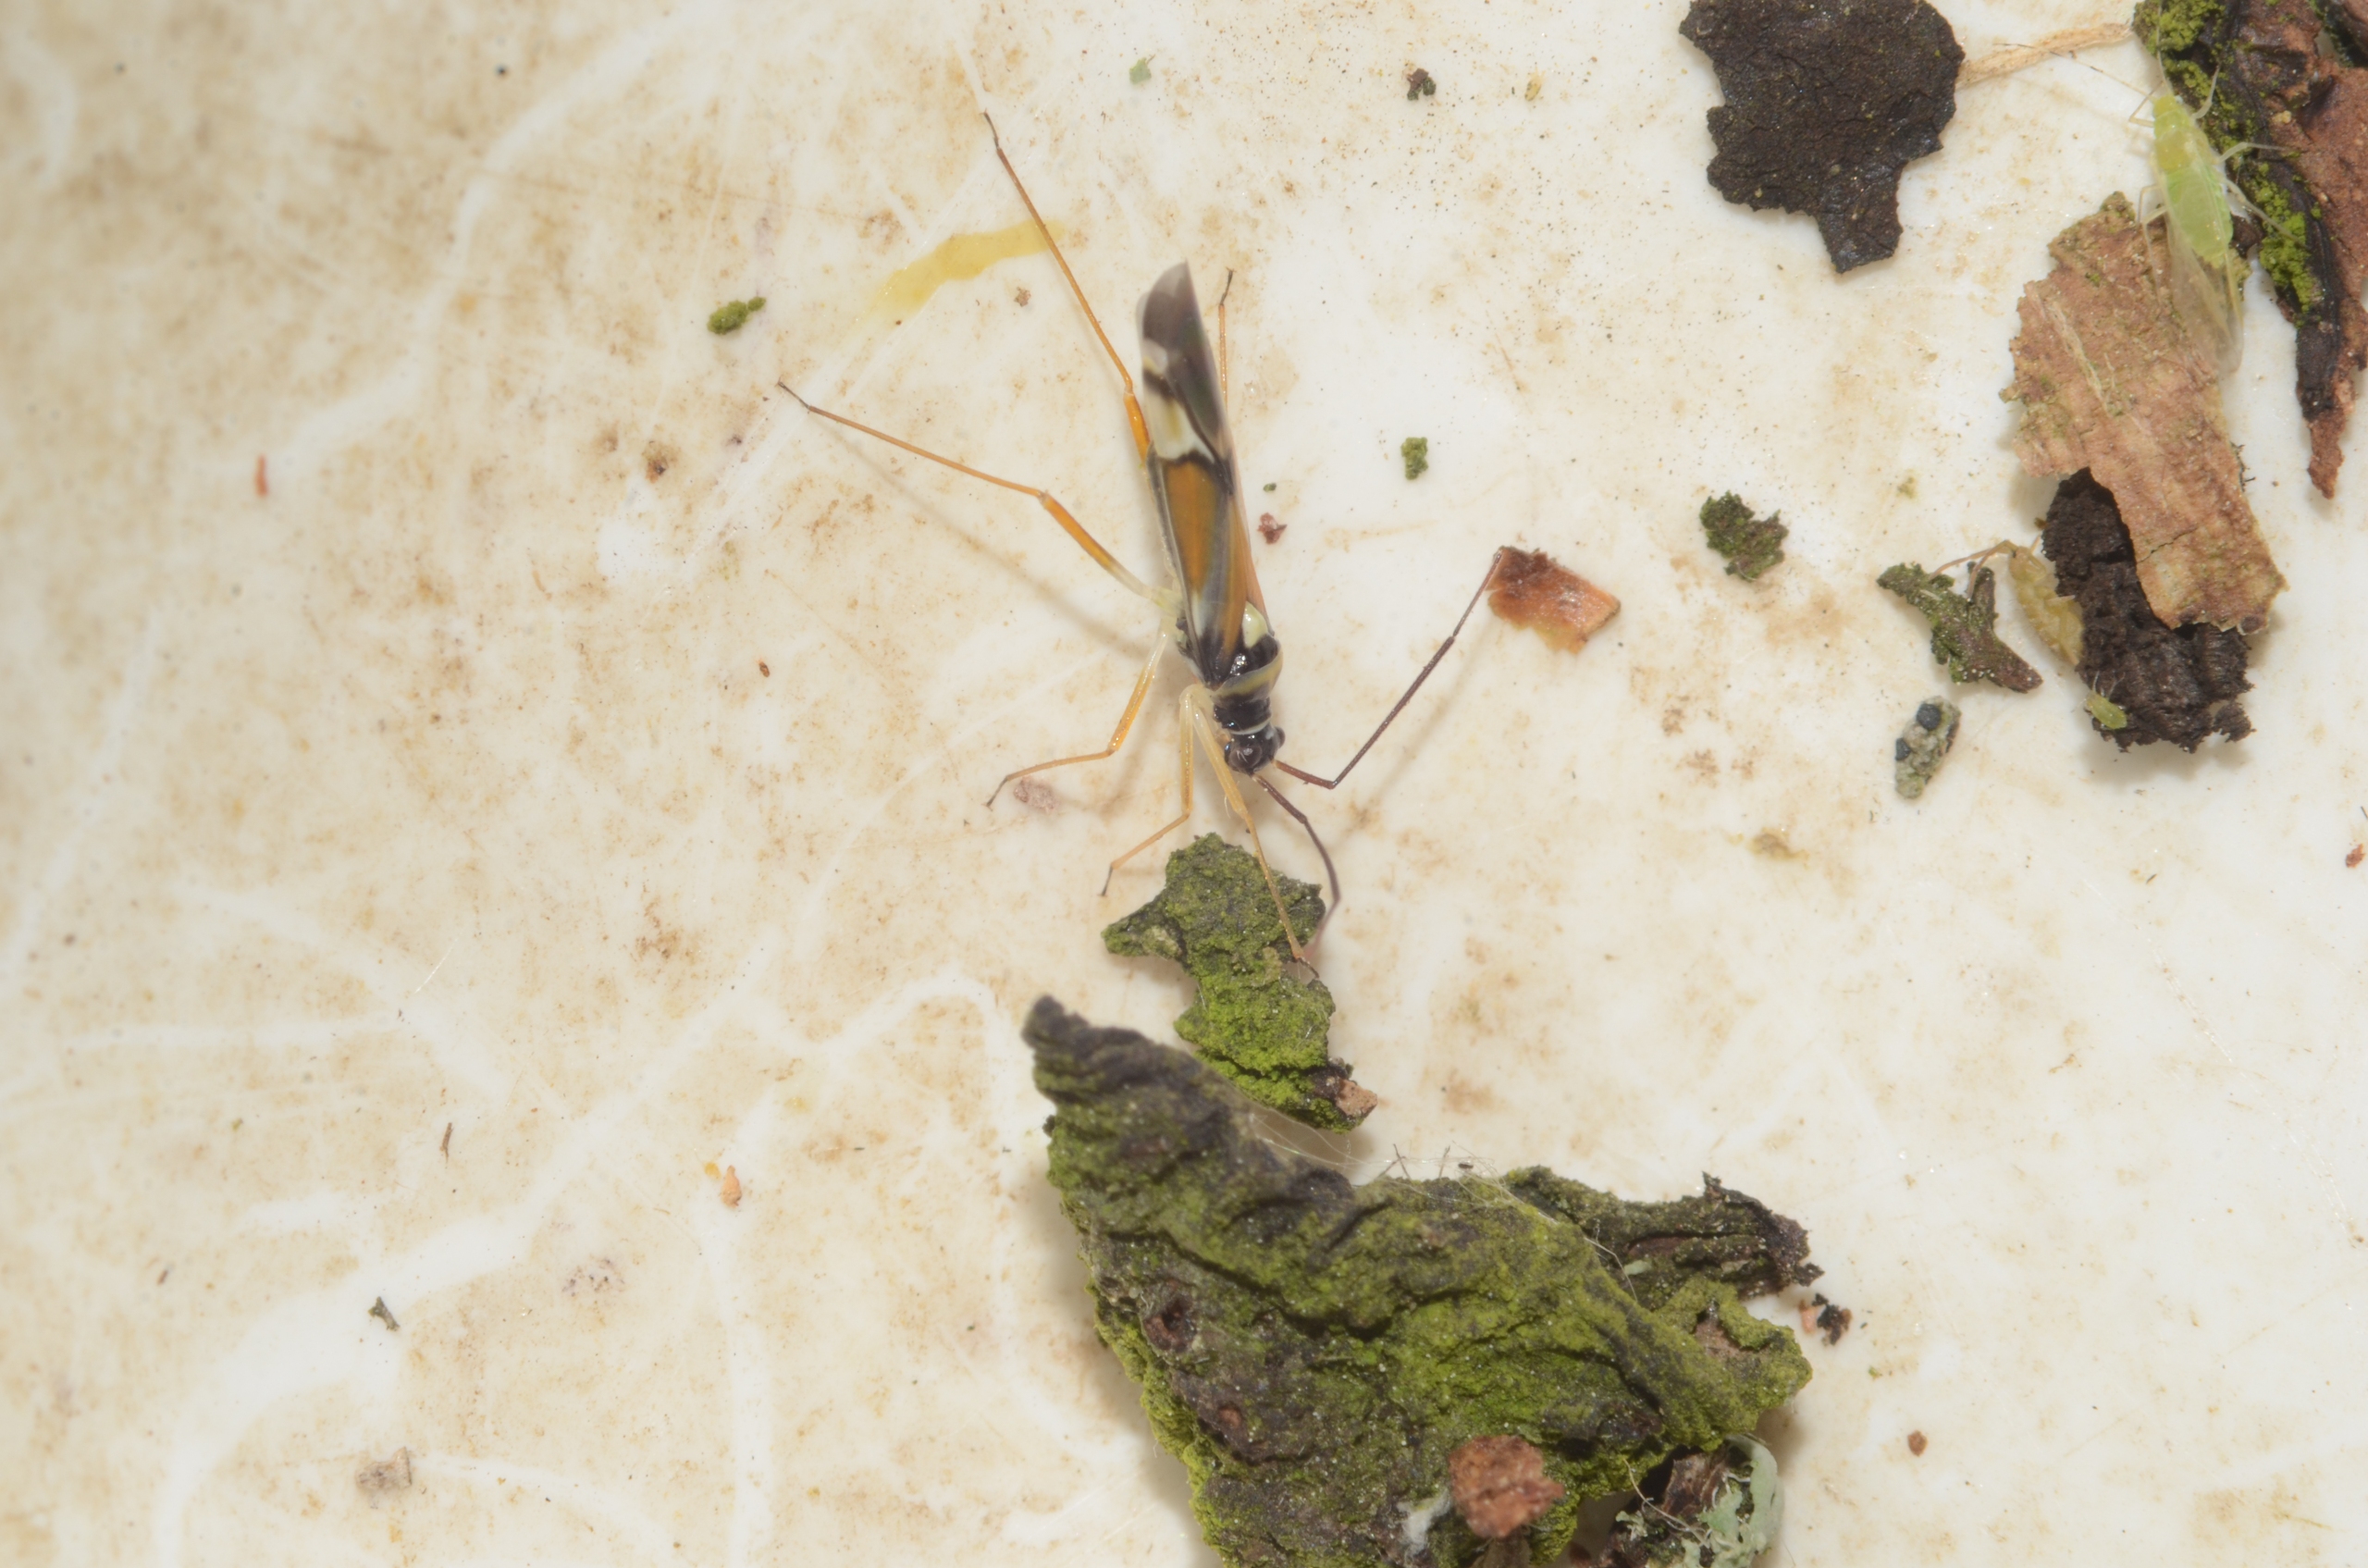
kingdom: Animalia
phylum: Arthropoda
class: Insecta
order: Hemiptera
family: Miridae
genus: Cyllecoris
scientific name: Cyllecoris histrionius
